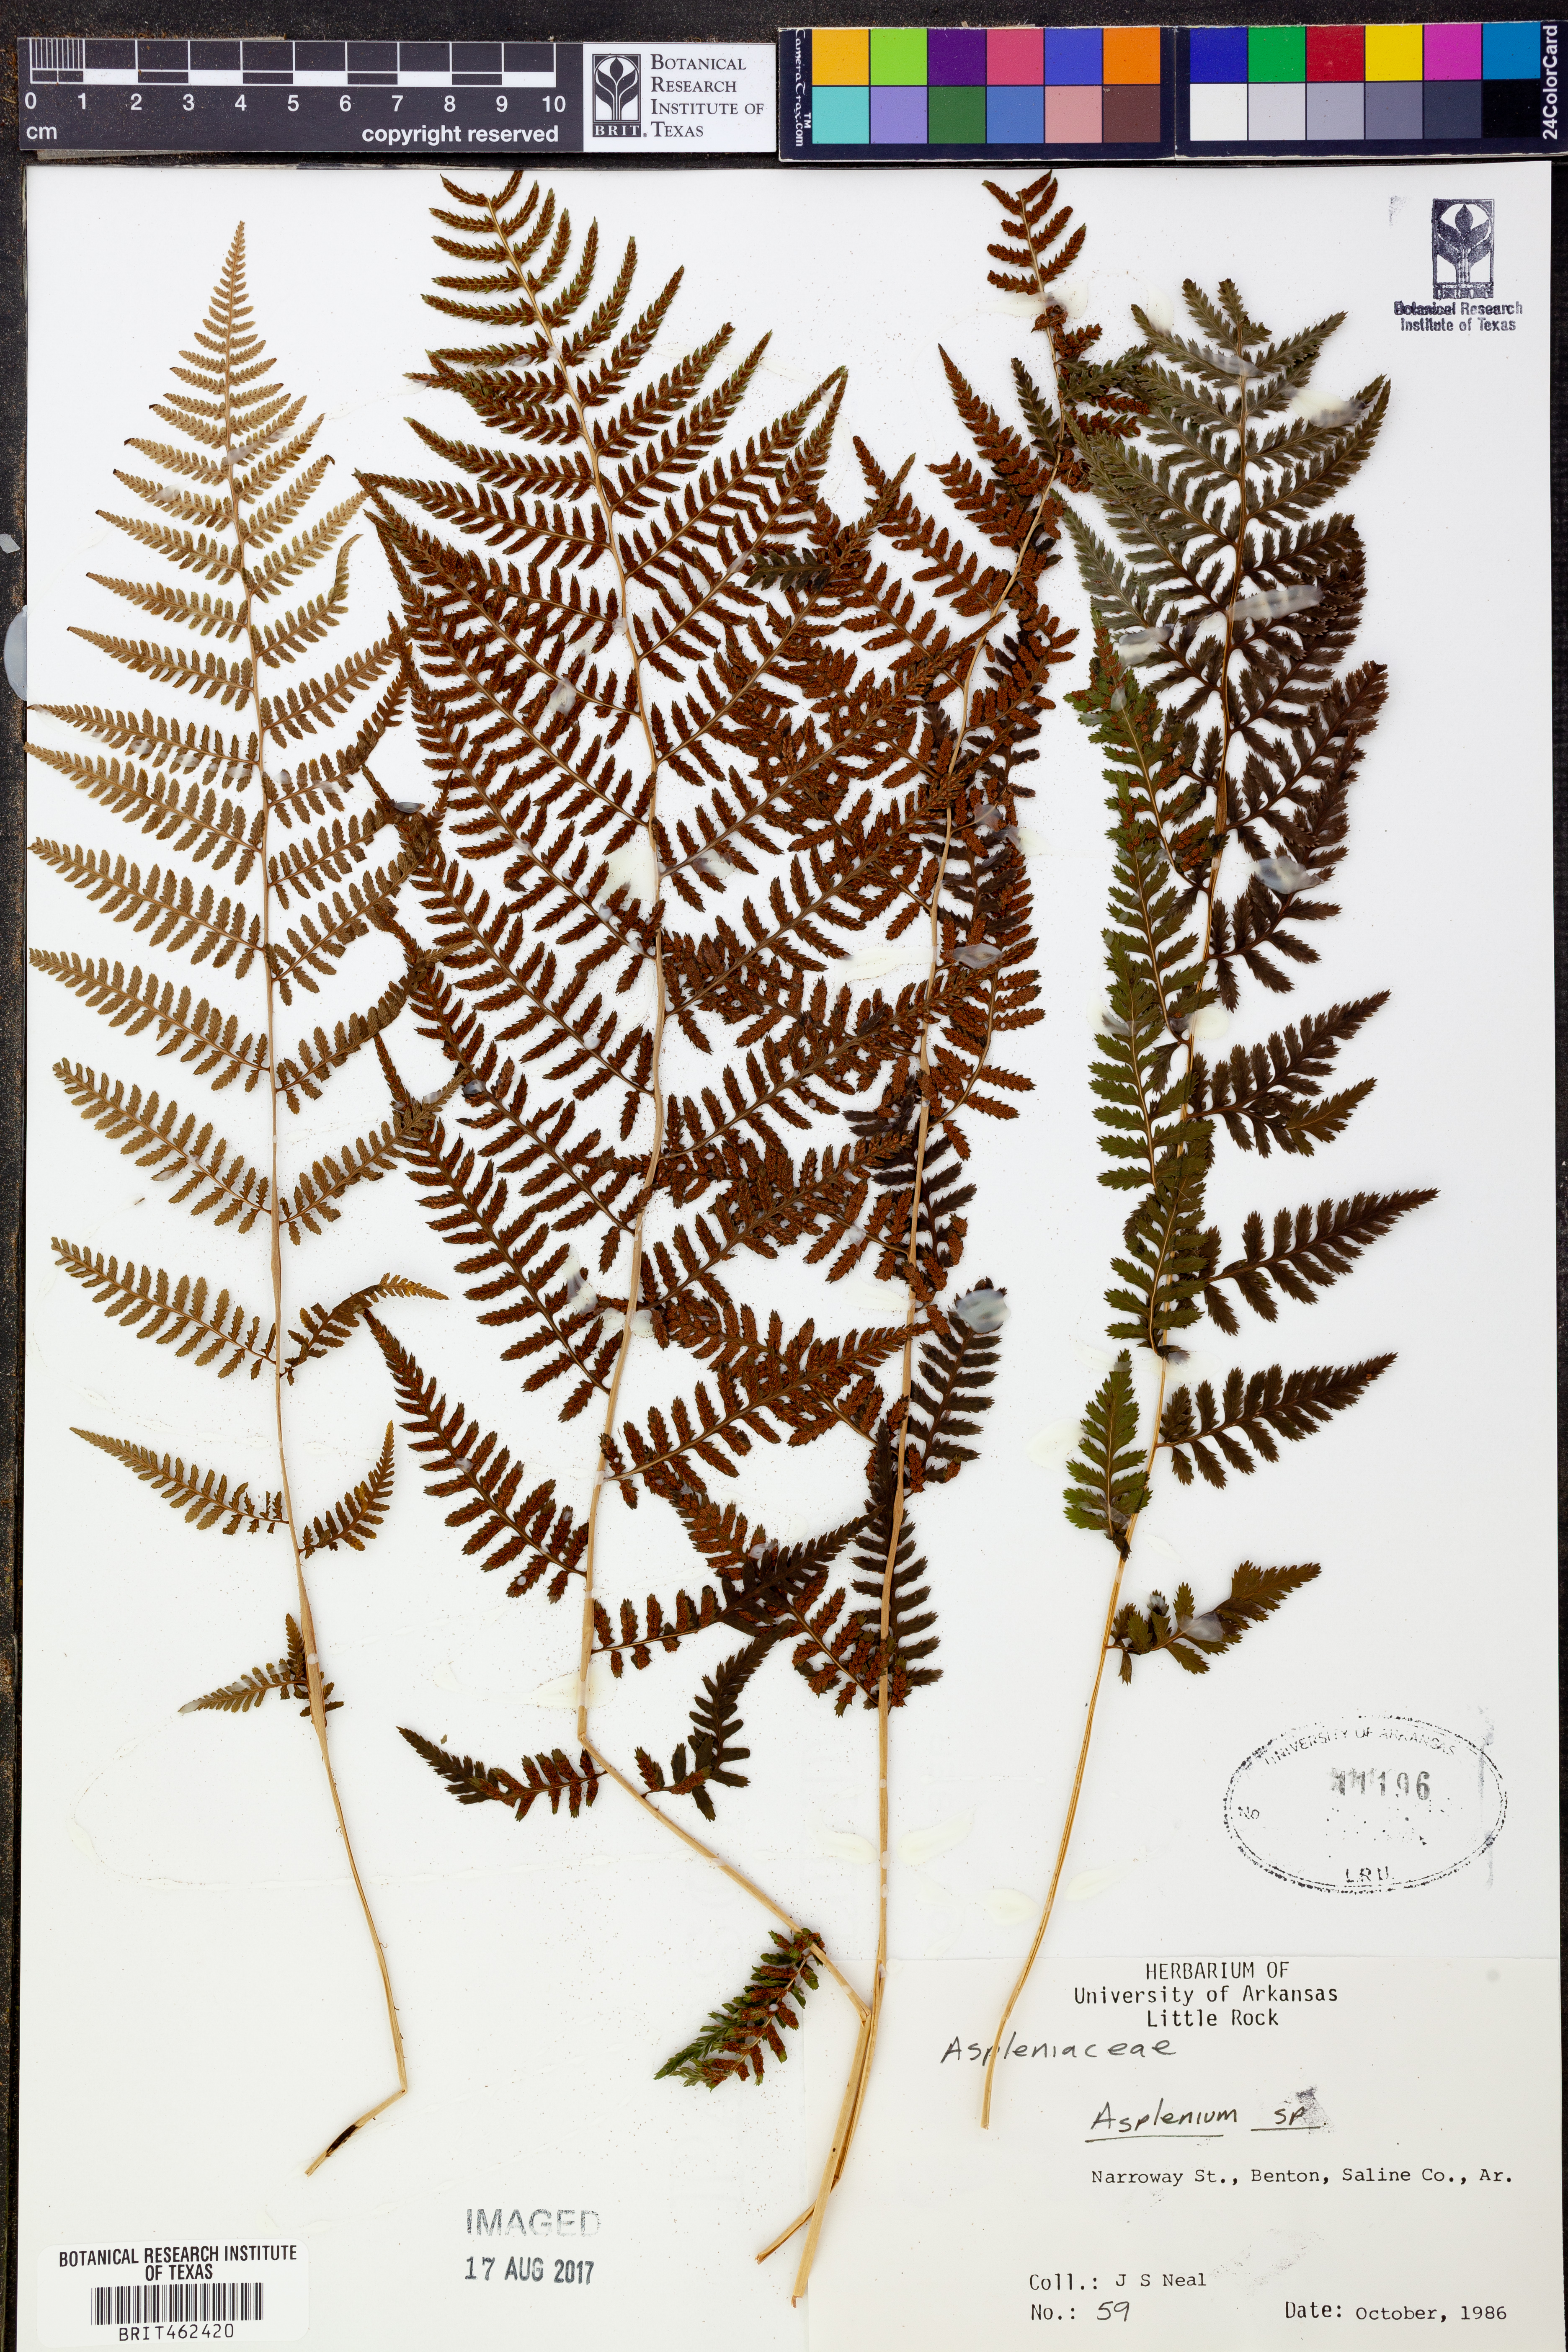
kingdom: Plantae
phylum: Tracheophyta
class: Polypodiopsida
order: Polypodiales
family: Aspleniaceae
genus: Asplenium
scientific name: Asplenium
